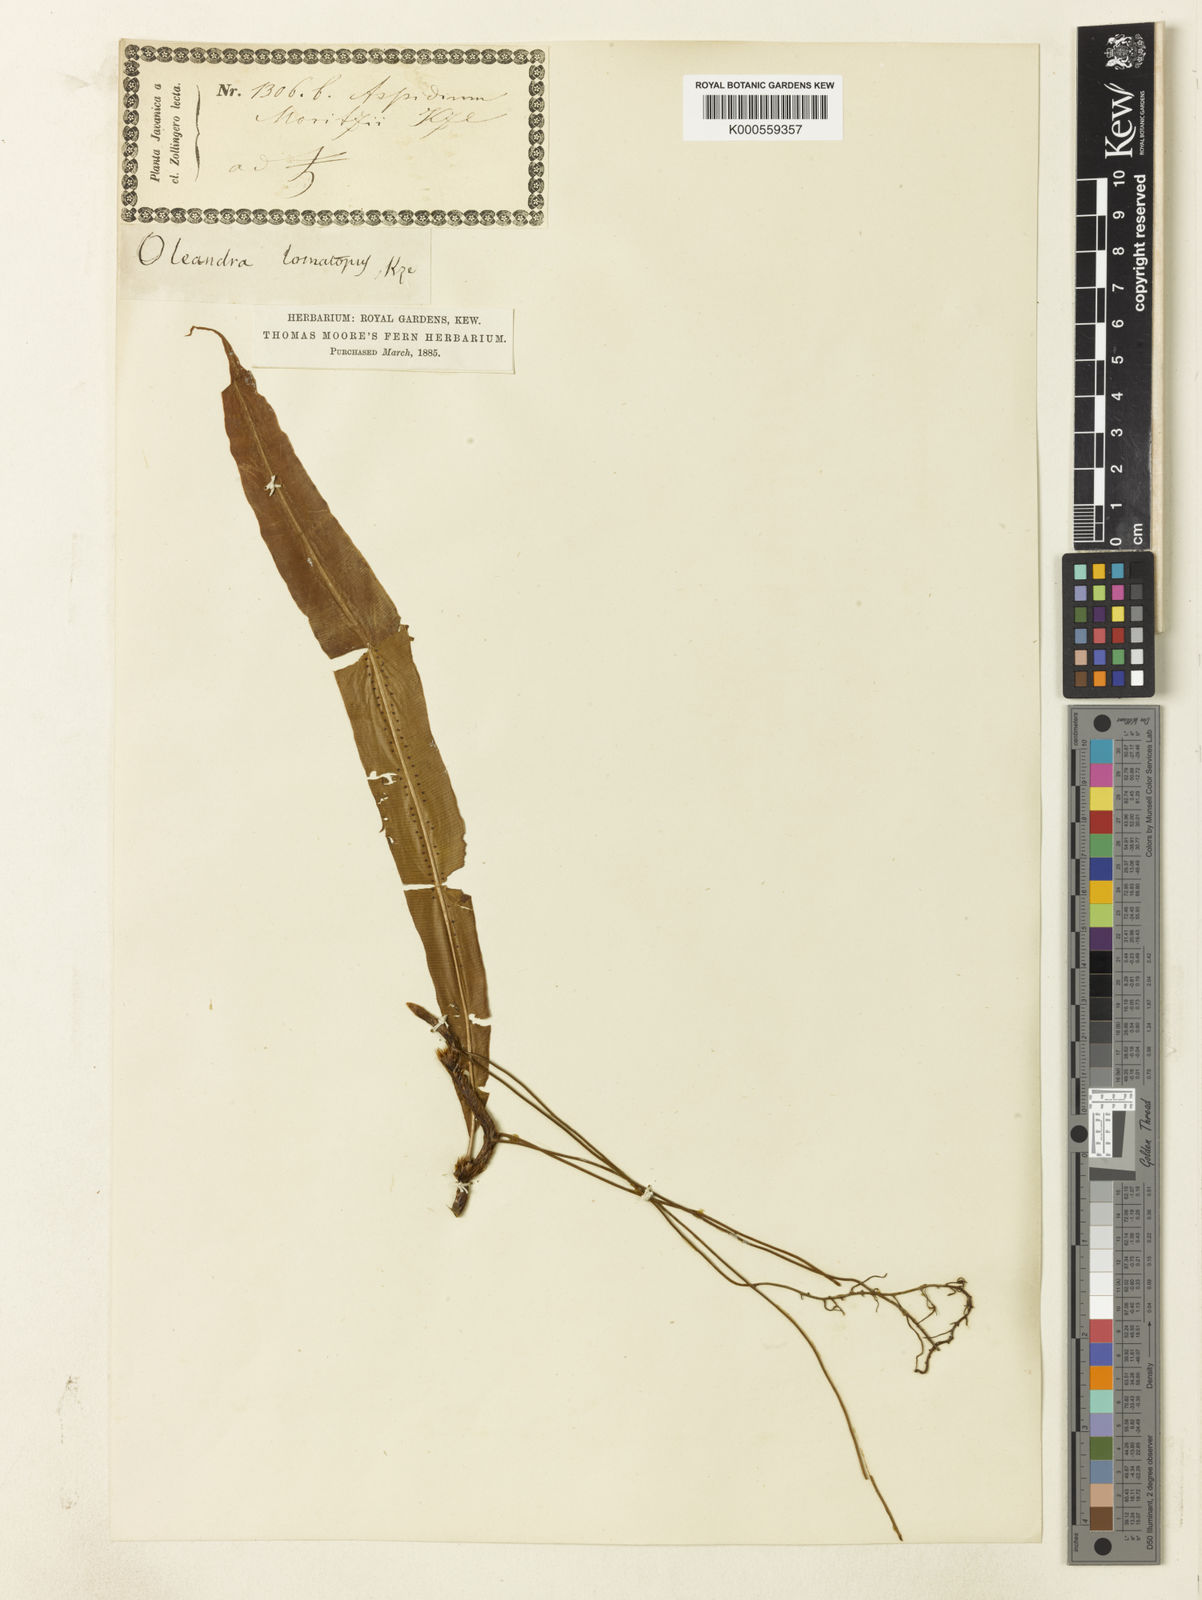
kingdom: Plantae
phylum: Tracheophyta
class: Polypodiopsida
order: Polypodiales
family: Oleandraceae
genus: Oleandra
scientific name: Oleandra musifolia
